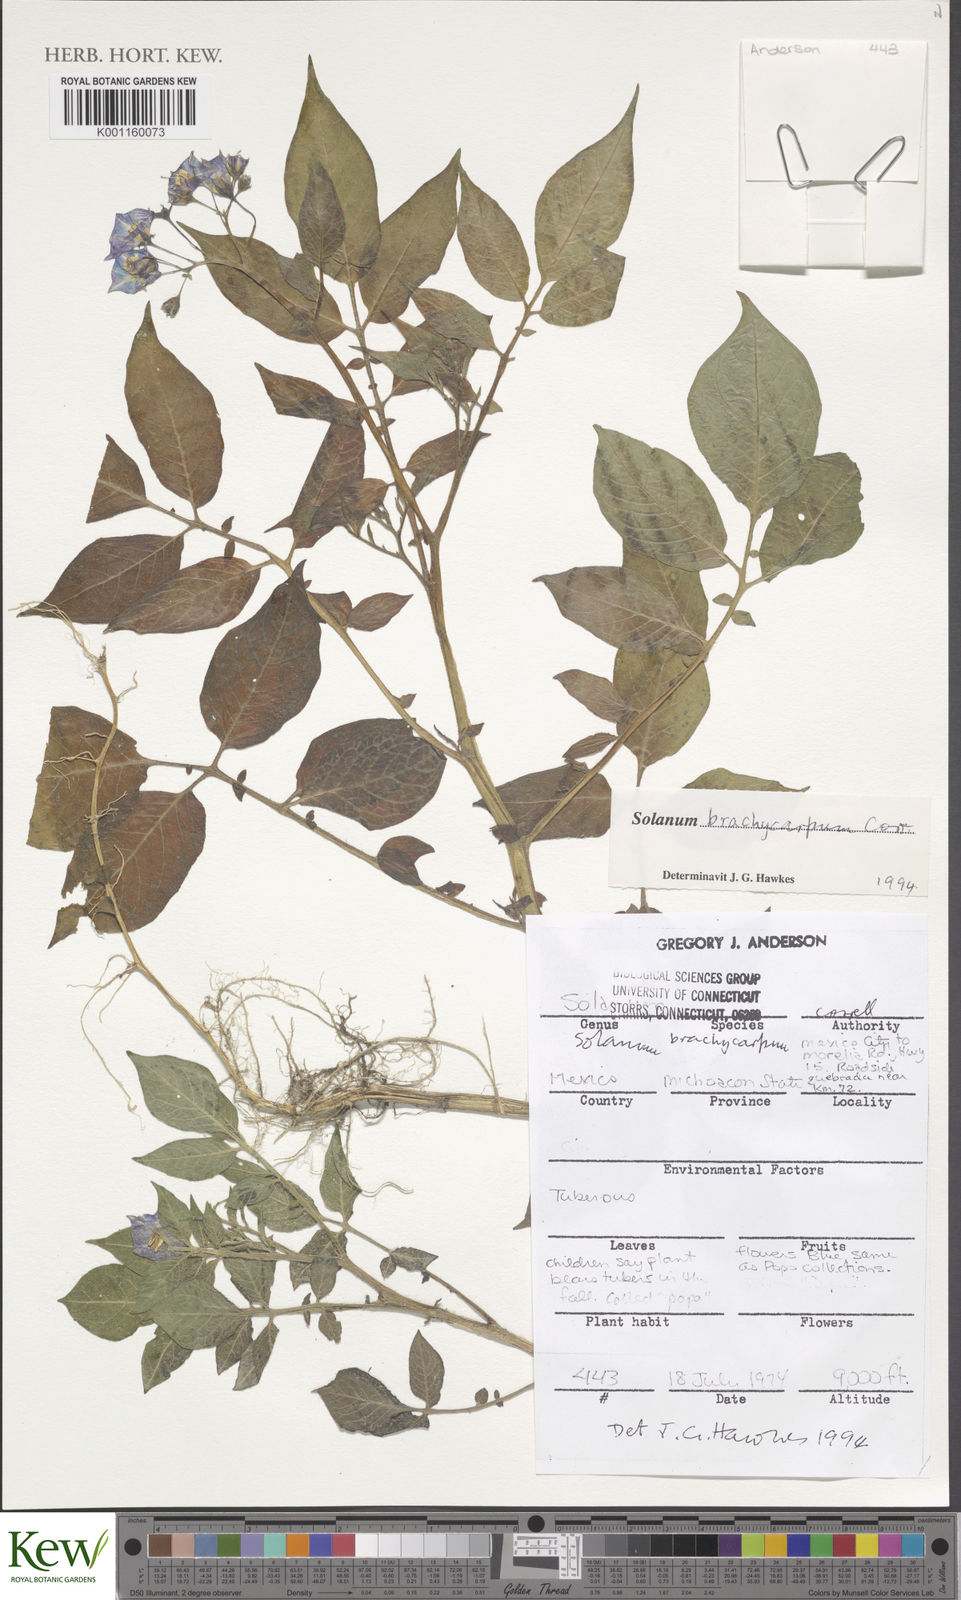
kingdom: Plantae
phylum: Tracheophyta
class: Magnoliopsida
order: Solanales
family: Solanaceae
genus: Solanum
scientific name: Solanum oxycarpum
